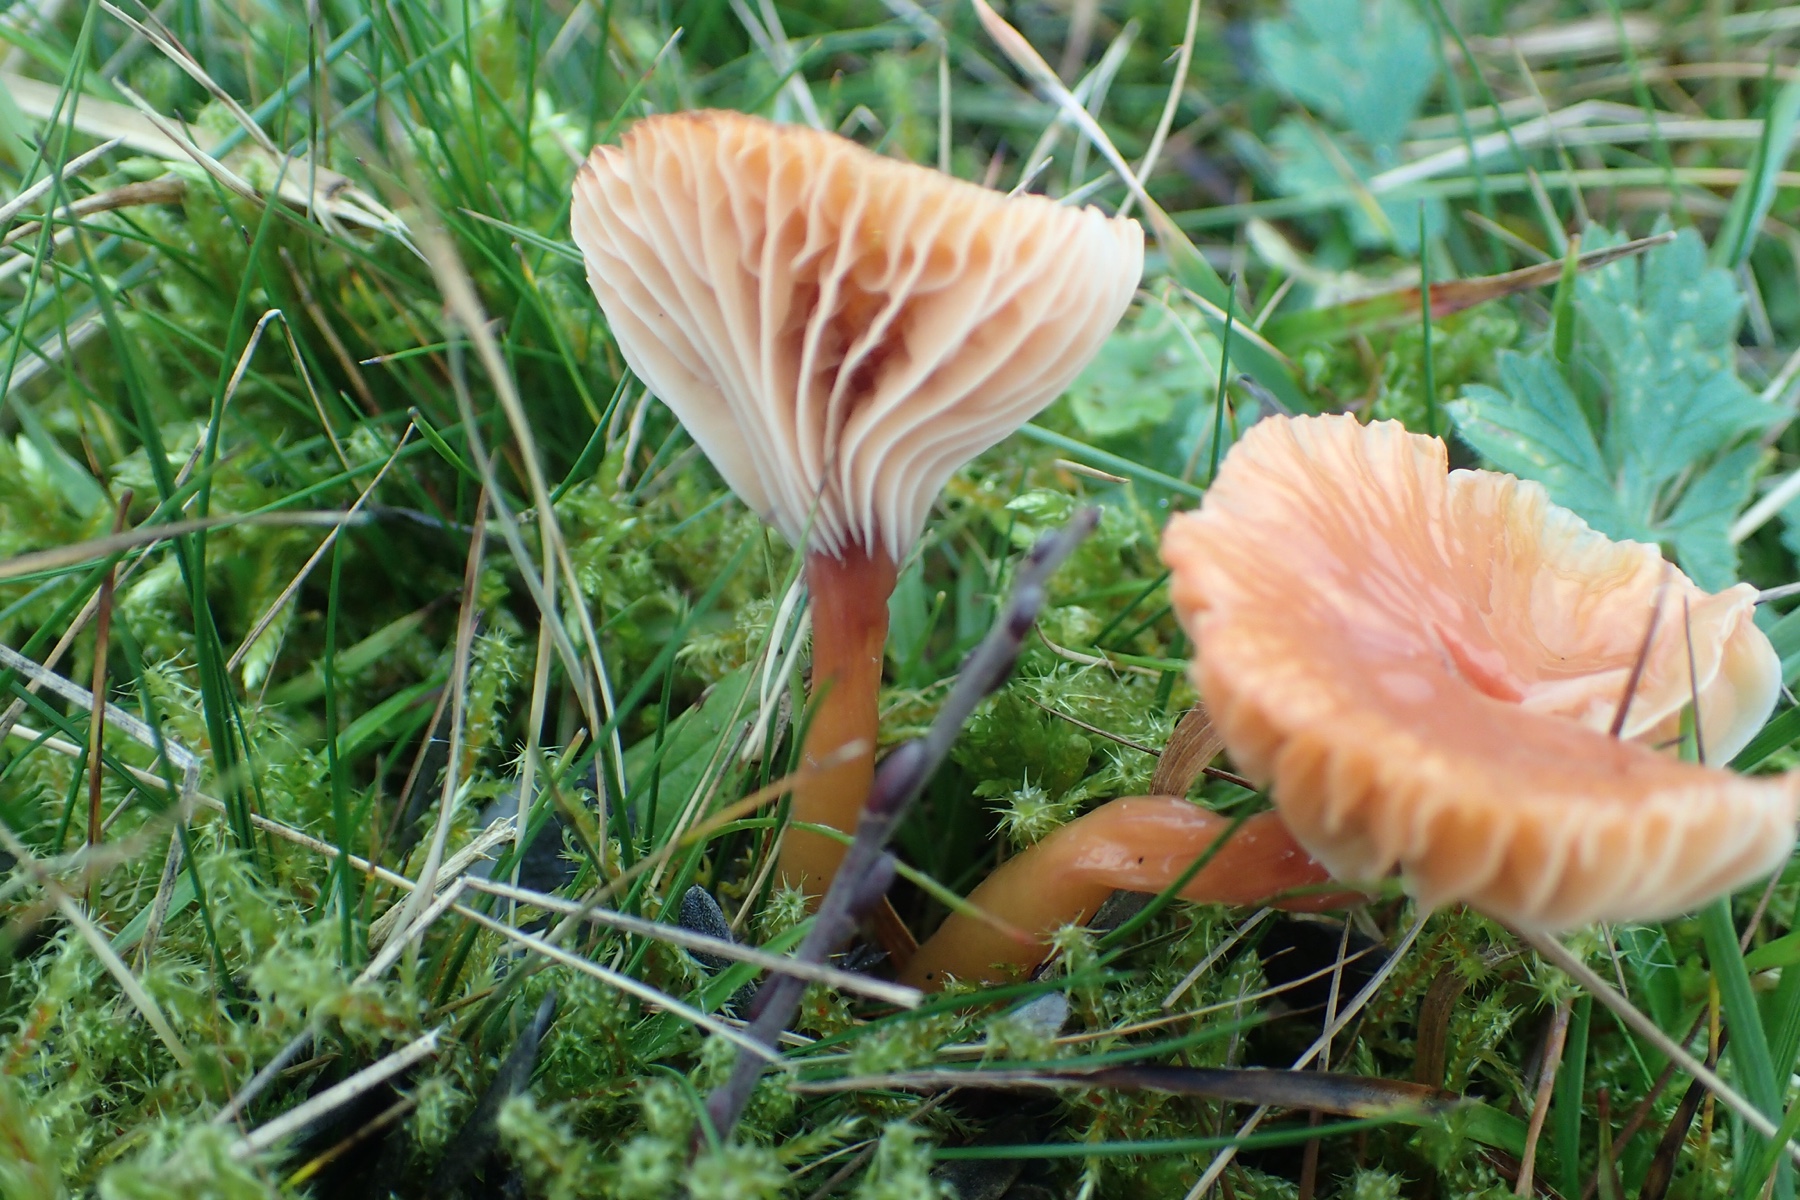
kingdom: Fungi
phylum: Basidiomycota
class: Agaricomycetes
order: Agaricales
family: Hygrophoraceae
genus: Gliophorus
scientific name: Gliophorus laetus
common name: brusk-vokshat
